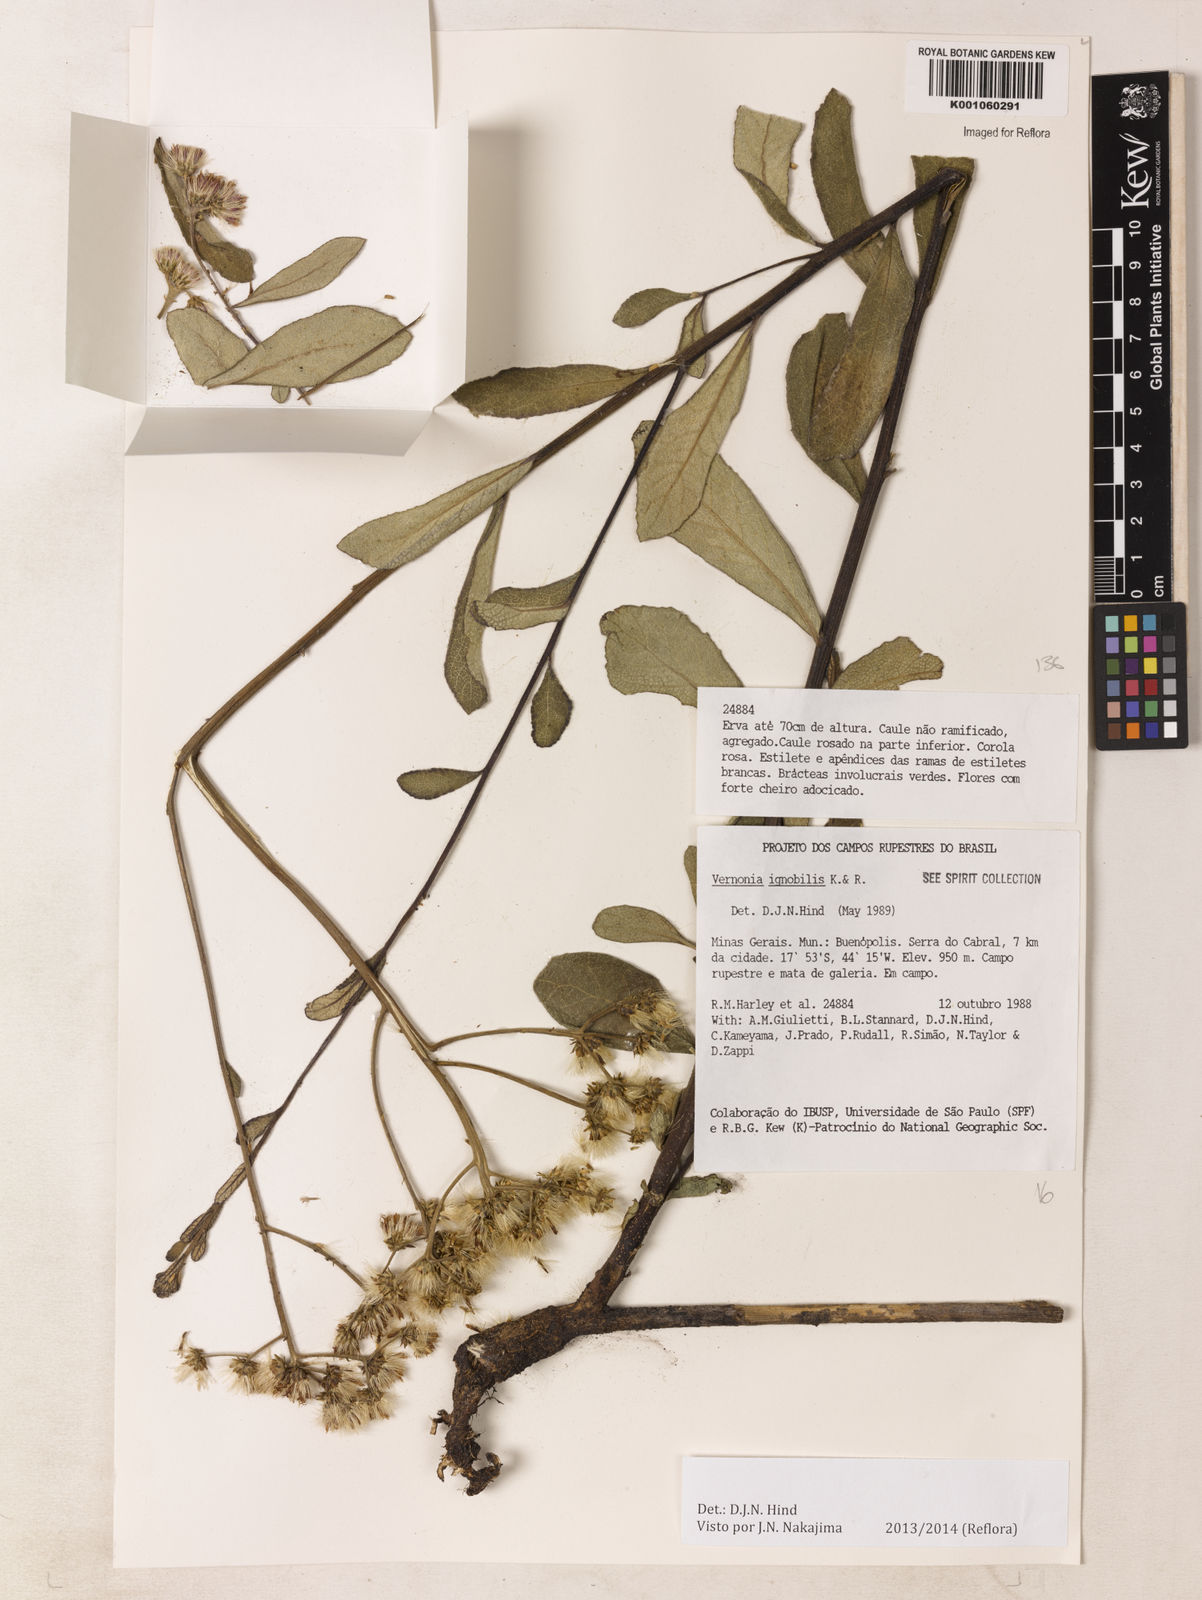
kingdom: Plantae
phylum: Tracheophyta
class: Magnoliopsida
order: Asterales
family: Asteraceae
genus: Vernonanthura
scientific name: Vernonanthura ignobilis
